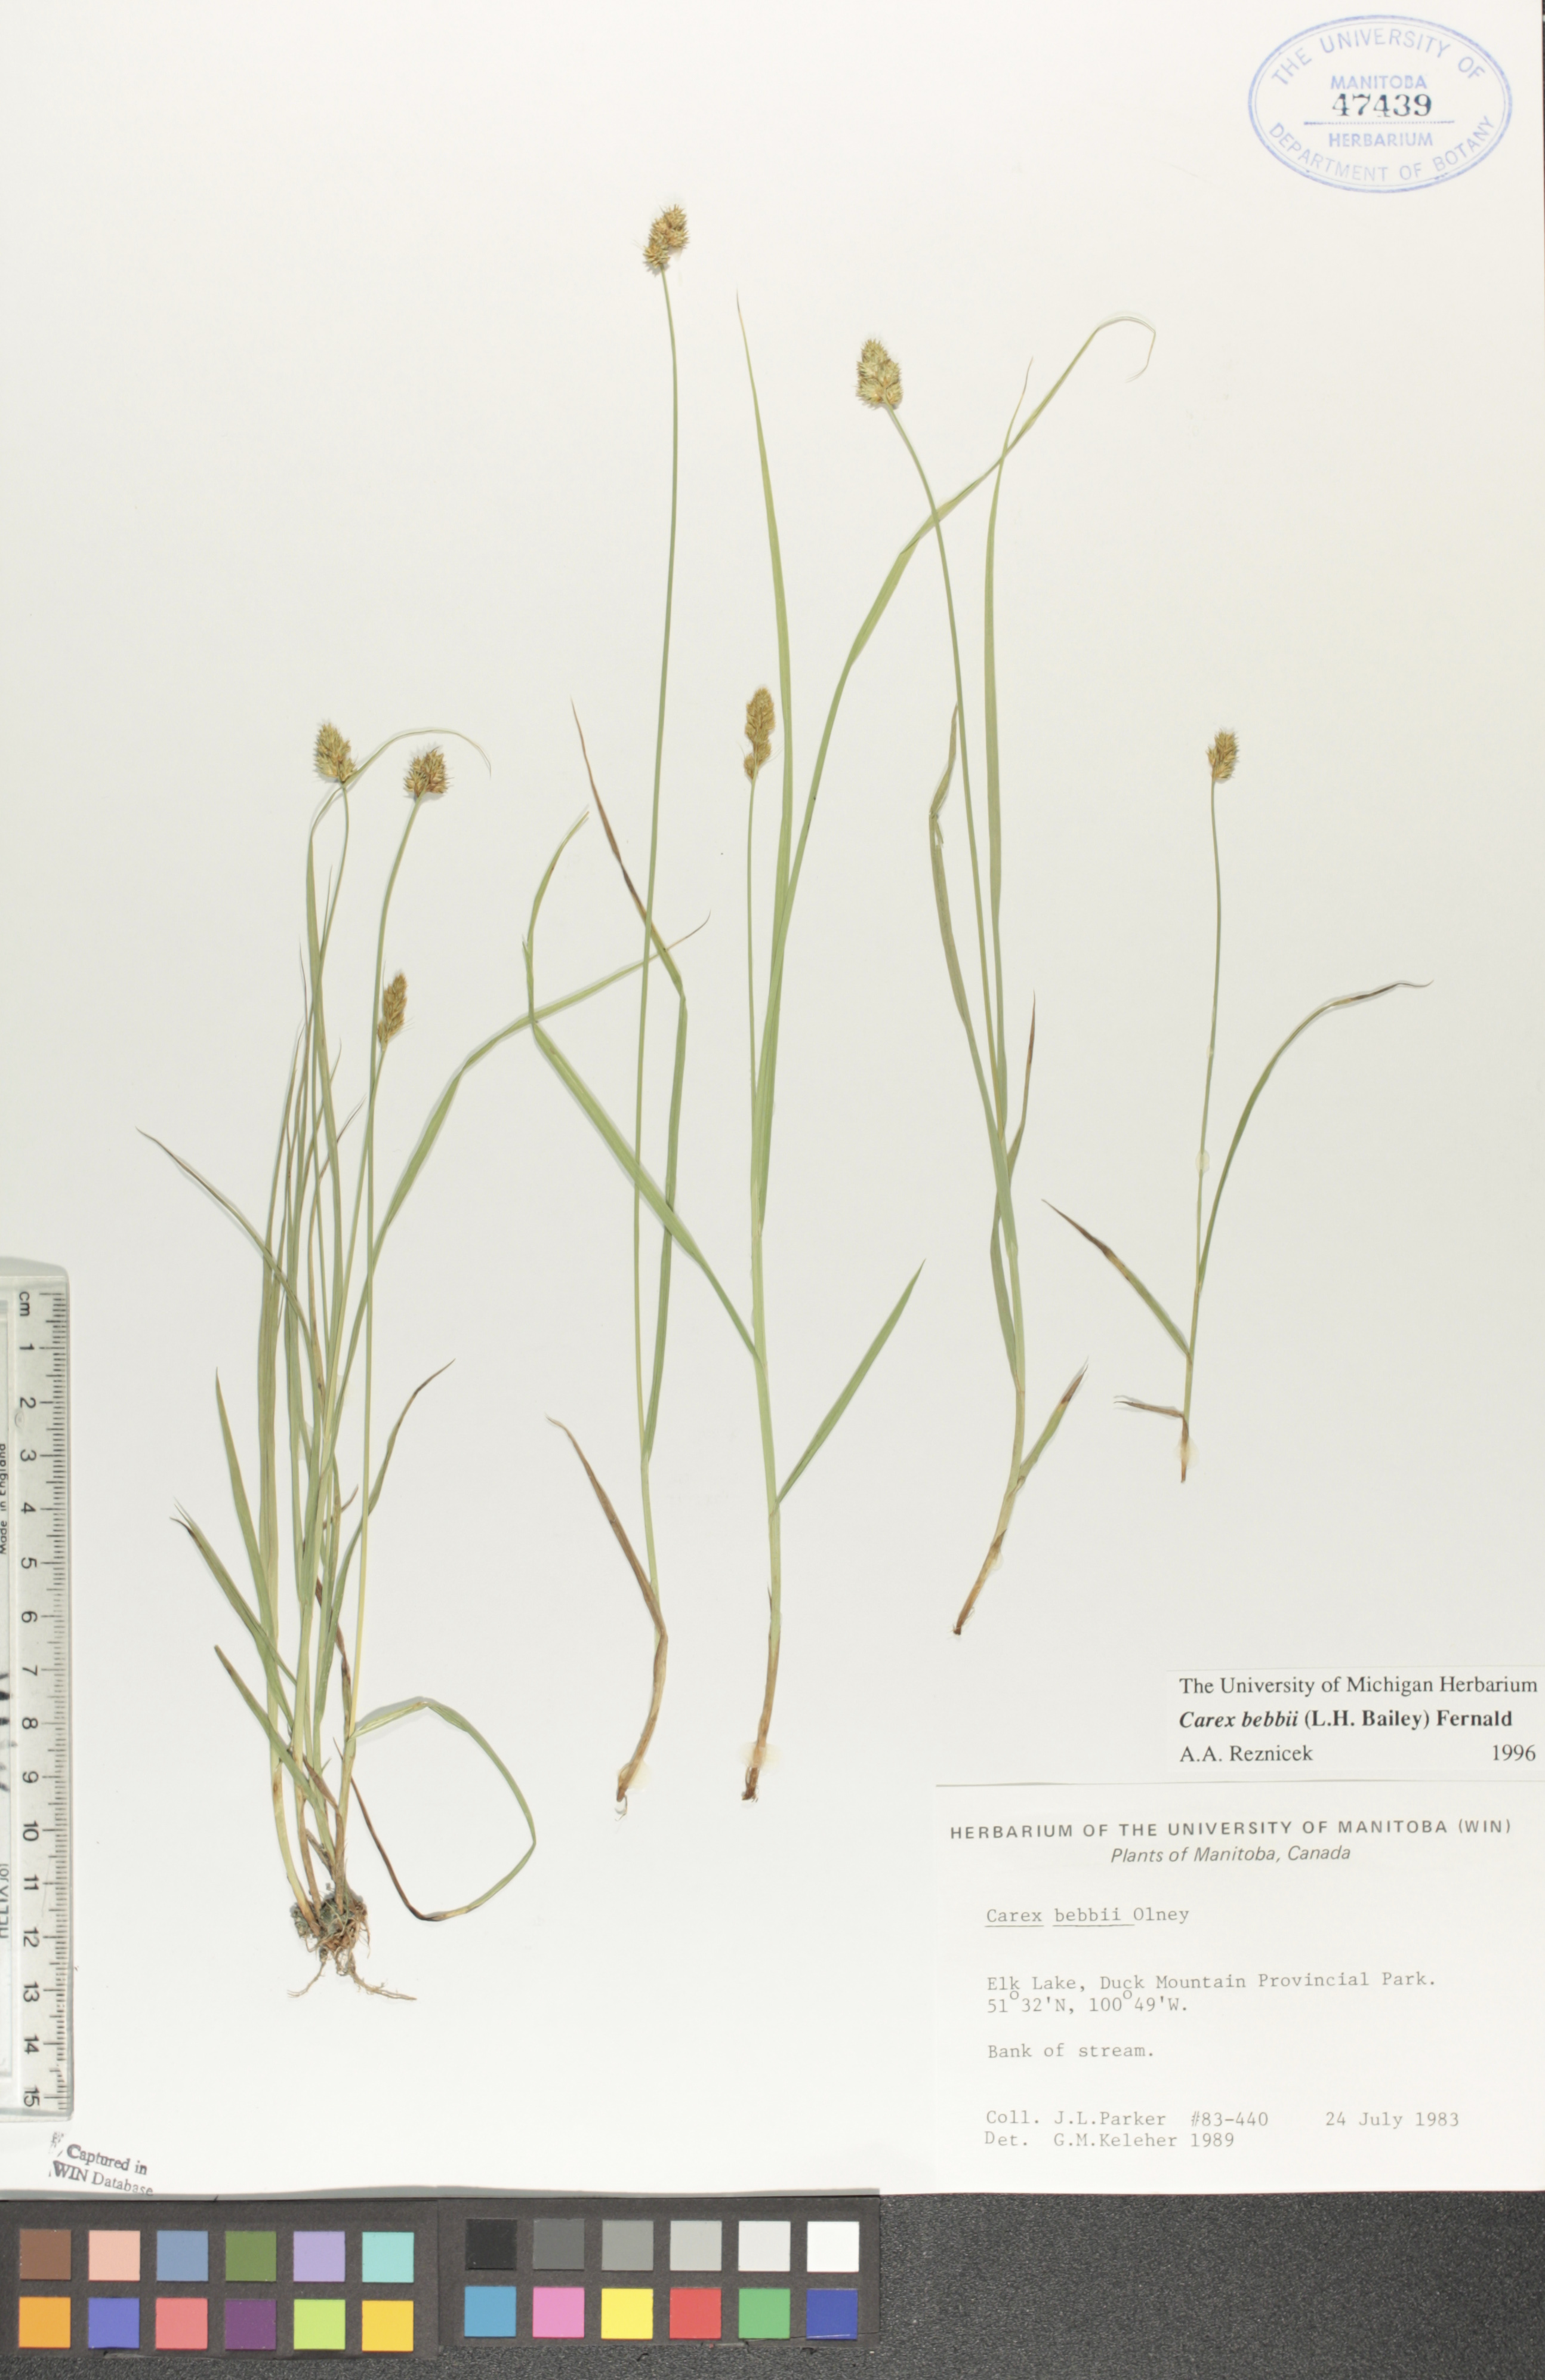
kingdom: Plantae
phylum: Tracheophyta
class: Liliopsida
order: Poales
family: Cyperaceae
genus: Carex
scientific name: Carex bebbii
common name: Bebb's sedge
